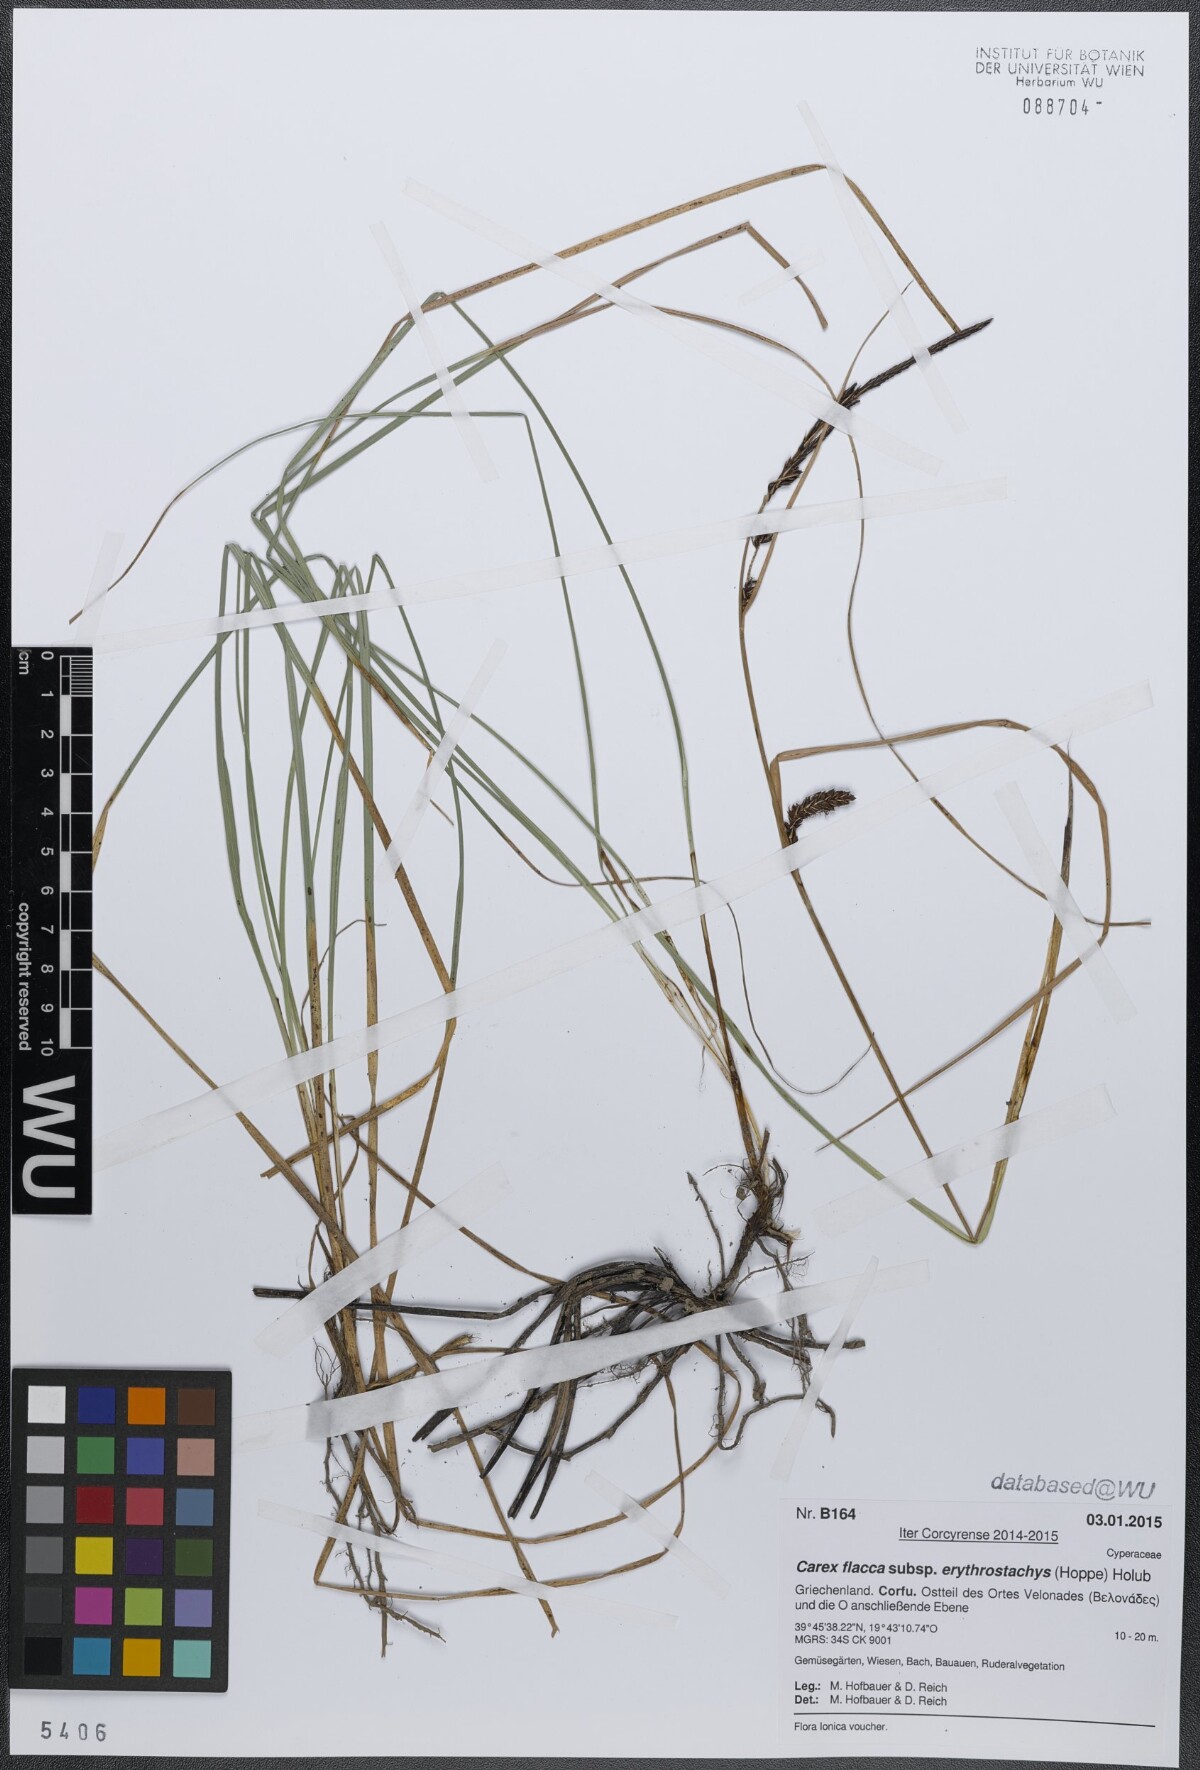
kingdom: Plantae
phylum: Tracheophyta
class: Liliopsida
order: Poales
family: Cyperaceae
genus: Carex
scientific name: Carex flacca
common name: Glaucous sedge
